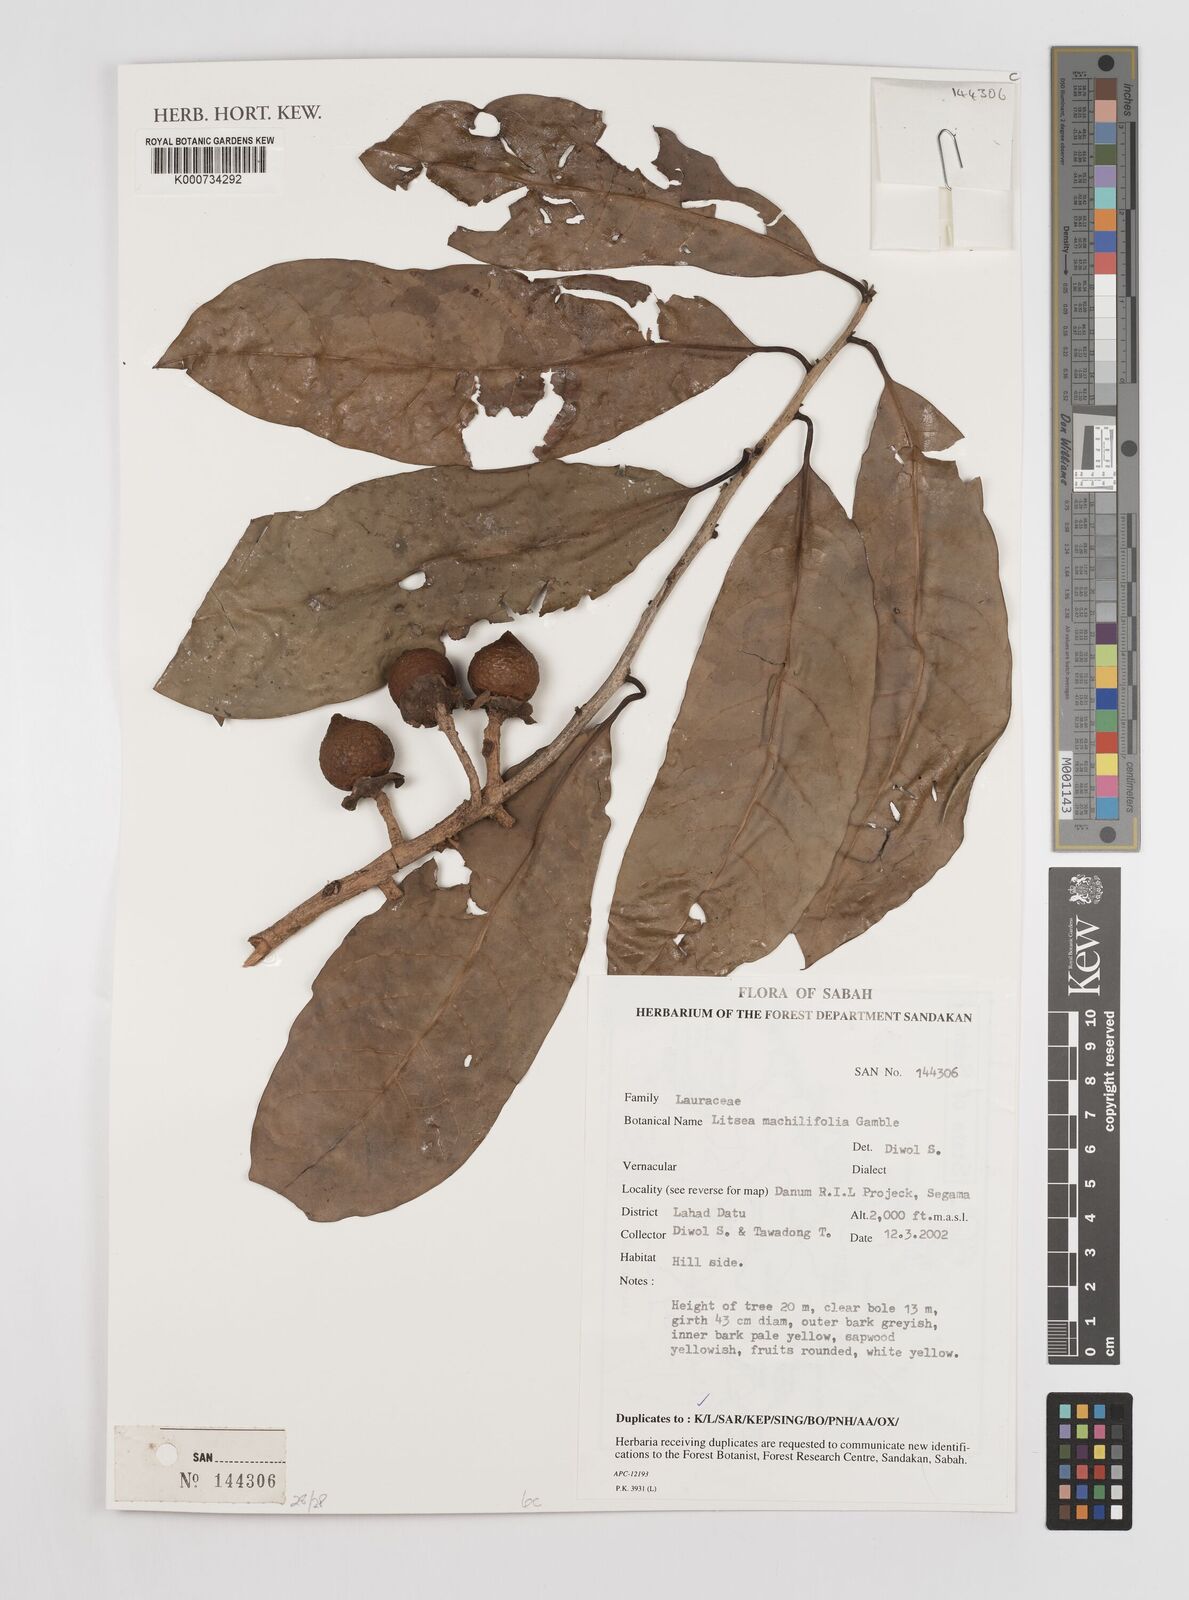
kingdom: Plantae
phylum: Tracheophyta
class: Magnoliopsida
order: Laurales
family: Lauraceae
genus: Litsea
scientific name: Litsea machilifolia
